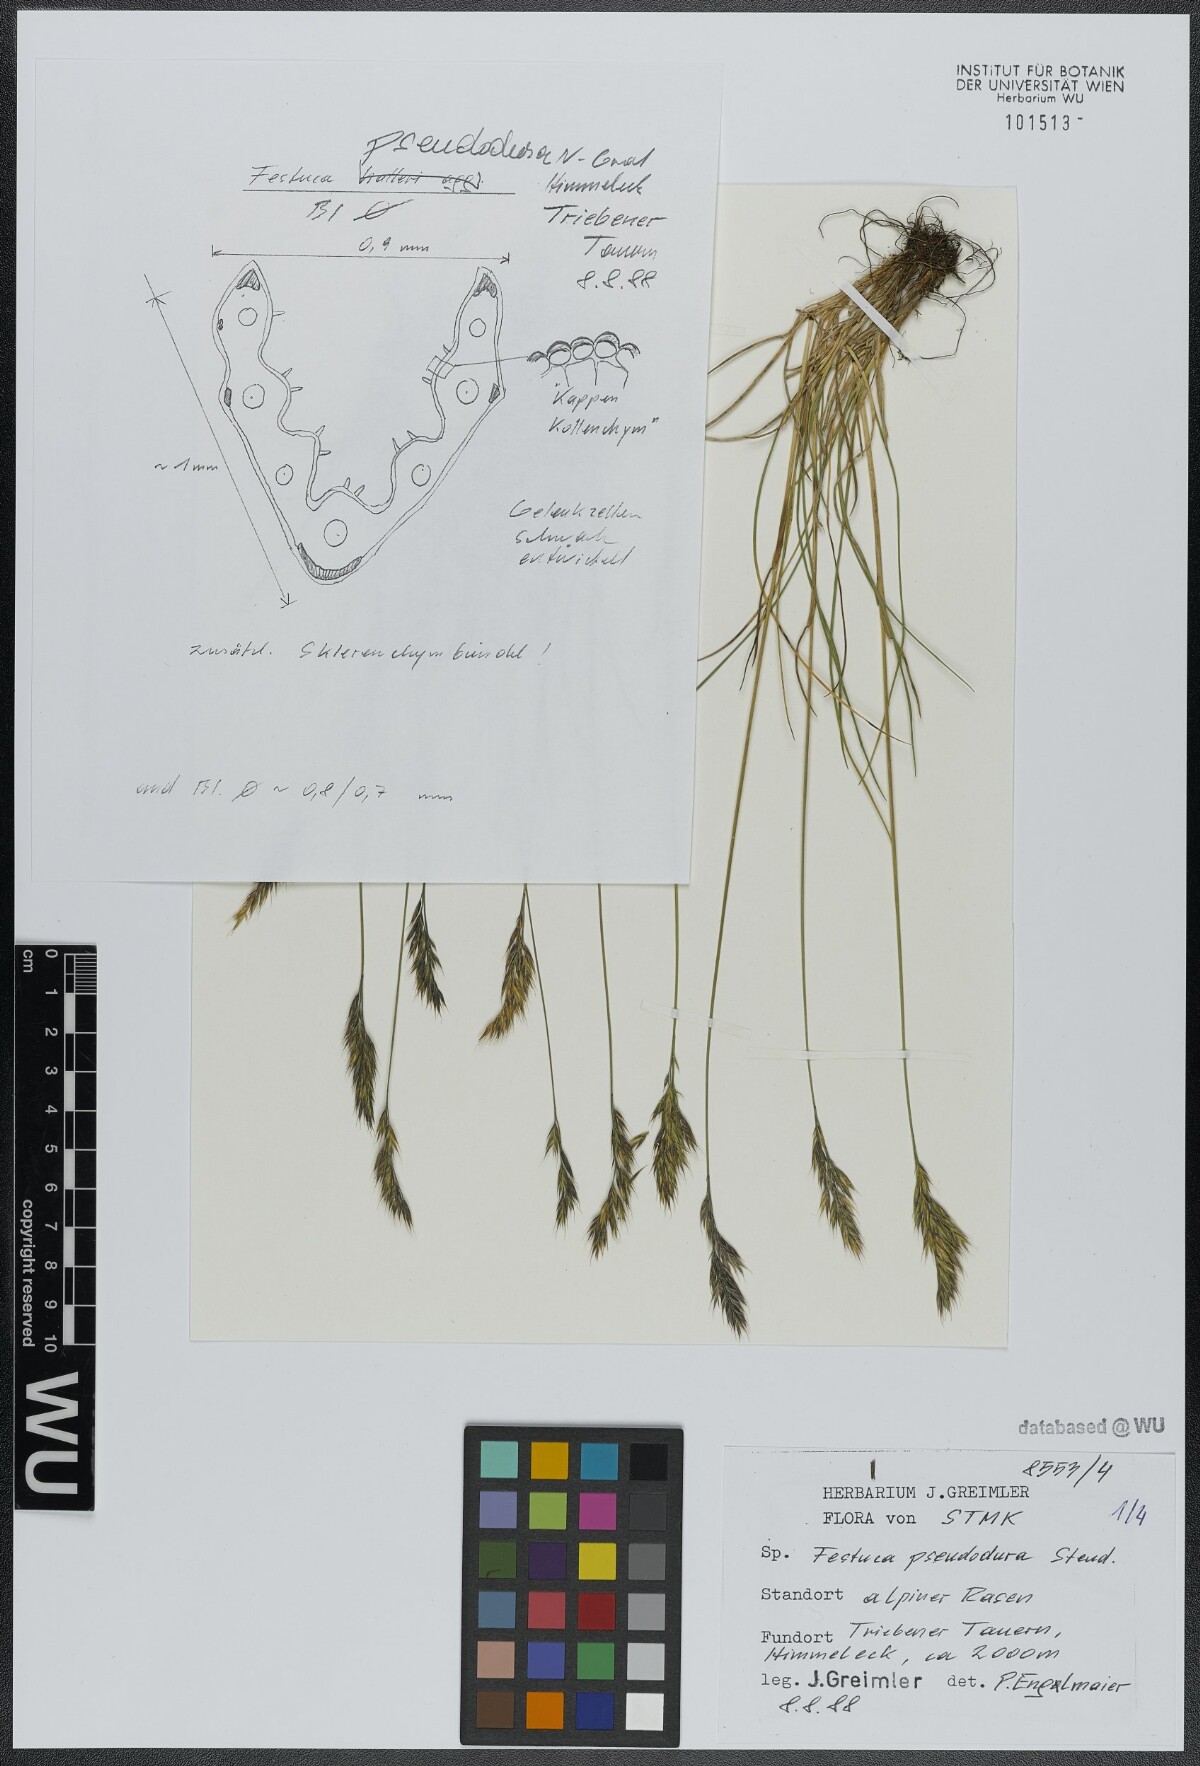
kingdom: Plantae
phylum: Tracheophyta
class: Liliopsida
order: Poales
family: Poaceae
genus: Festuca
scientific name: Festuca pseudodura
